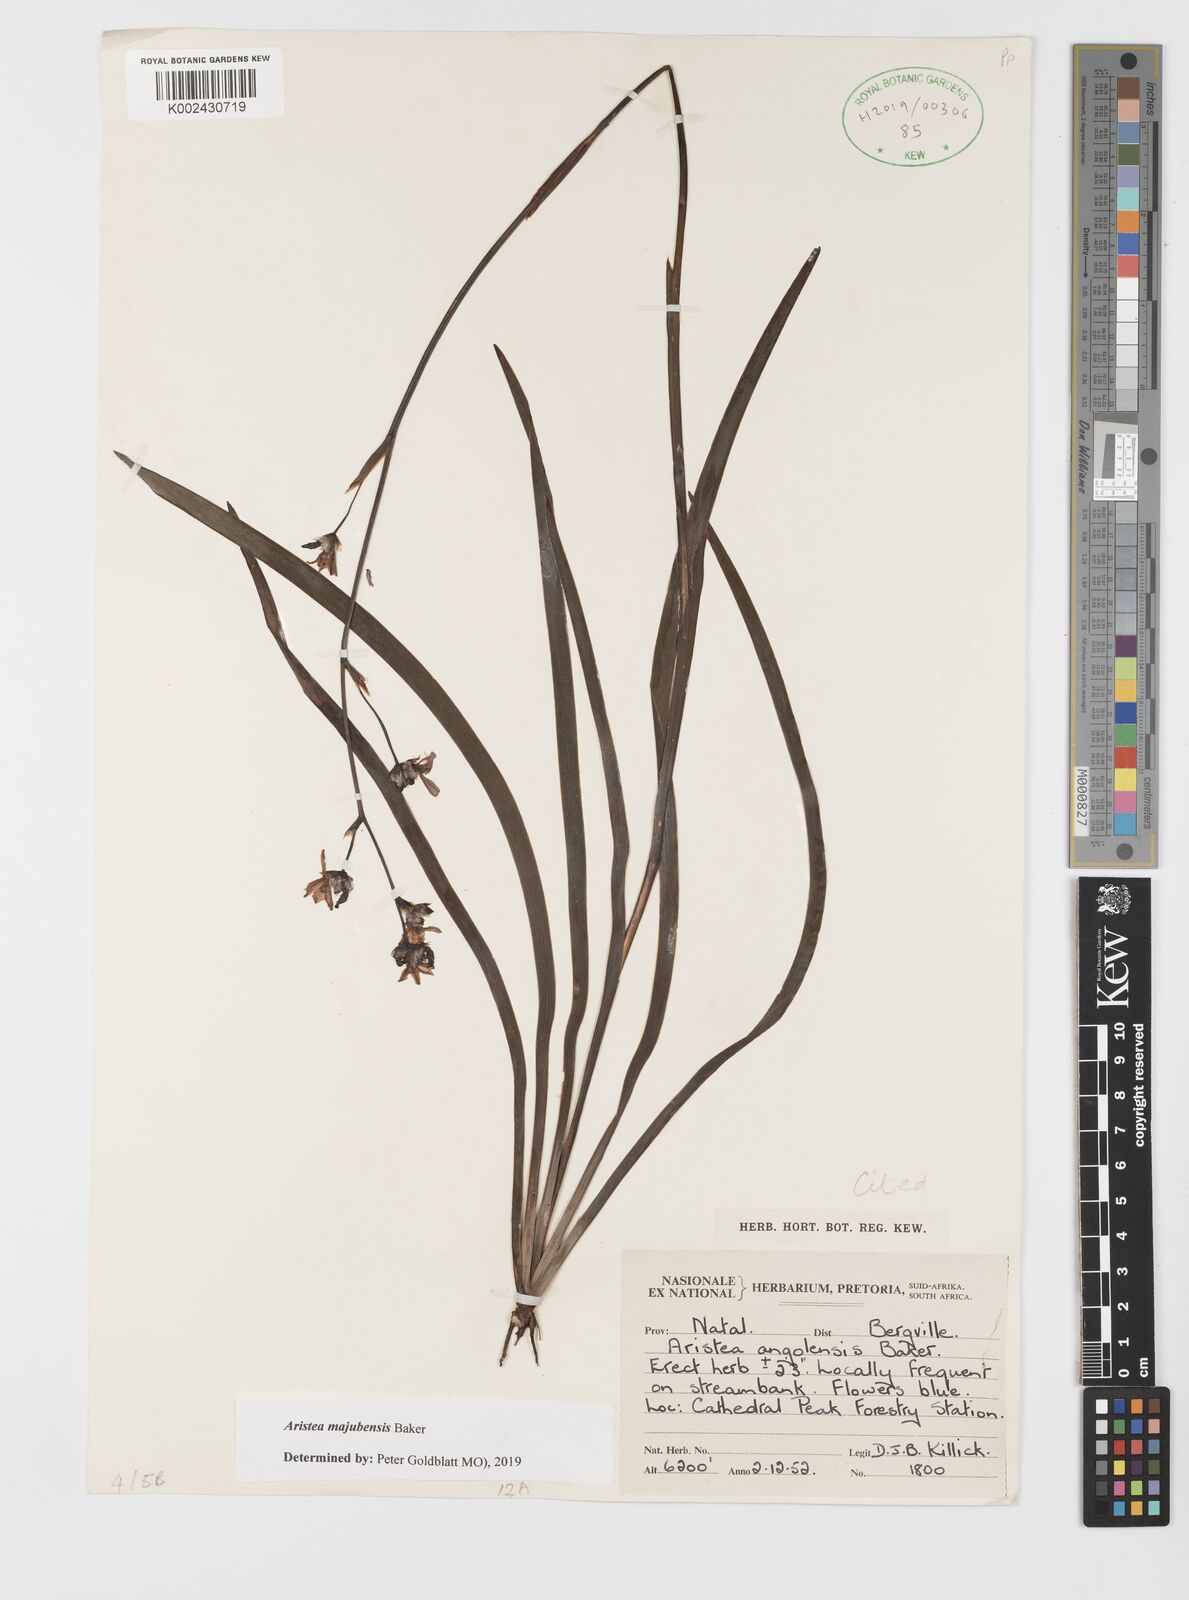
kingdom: Plantae
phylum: Tracheophyta
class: Liliopsida
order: Asparagales
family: Iridaceae
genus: Aristea
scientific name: Aristea majubensis
